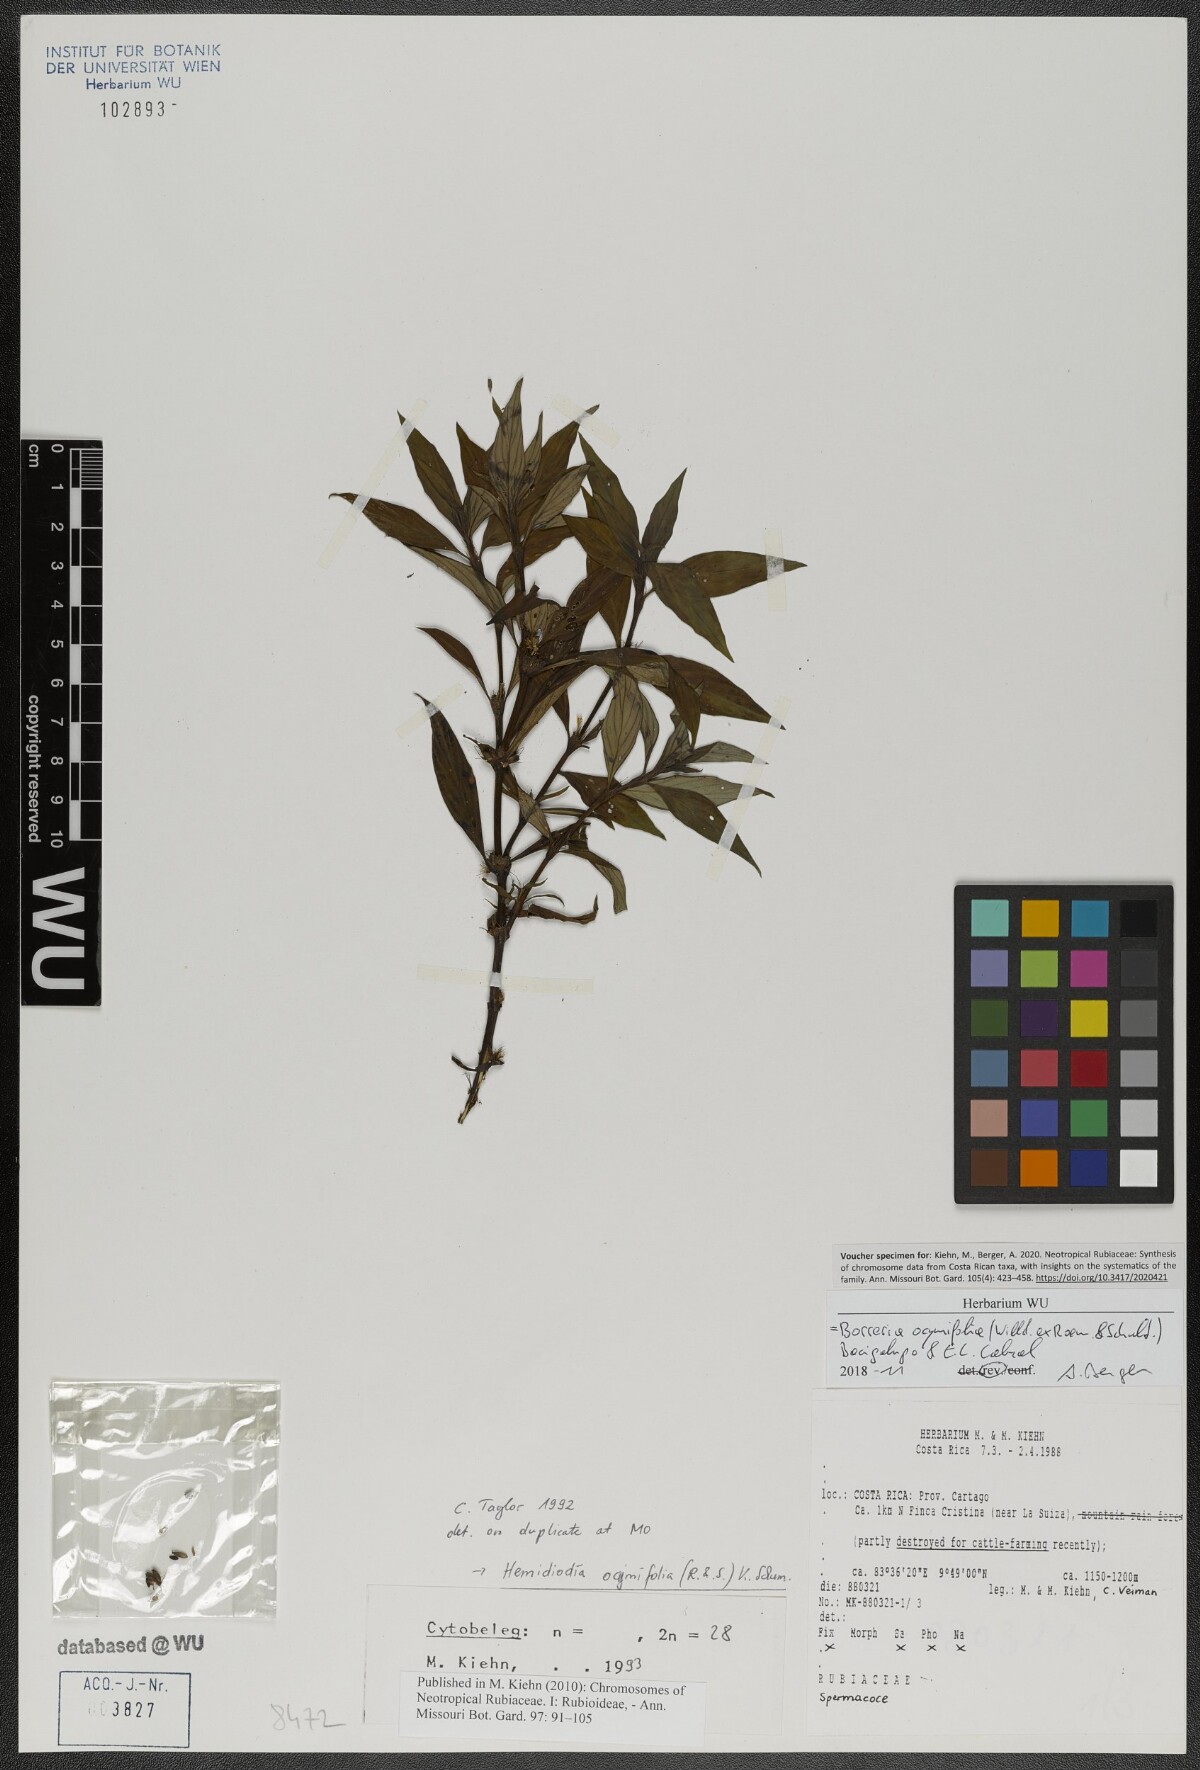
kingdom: Plantae
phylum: Tracheophyta
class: Magnoliopsida
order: Gentianales
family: Rubiaceae
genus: Spermacoce
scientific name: Spermacoce ocymifolia
